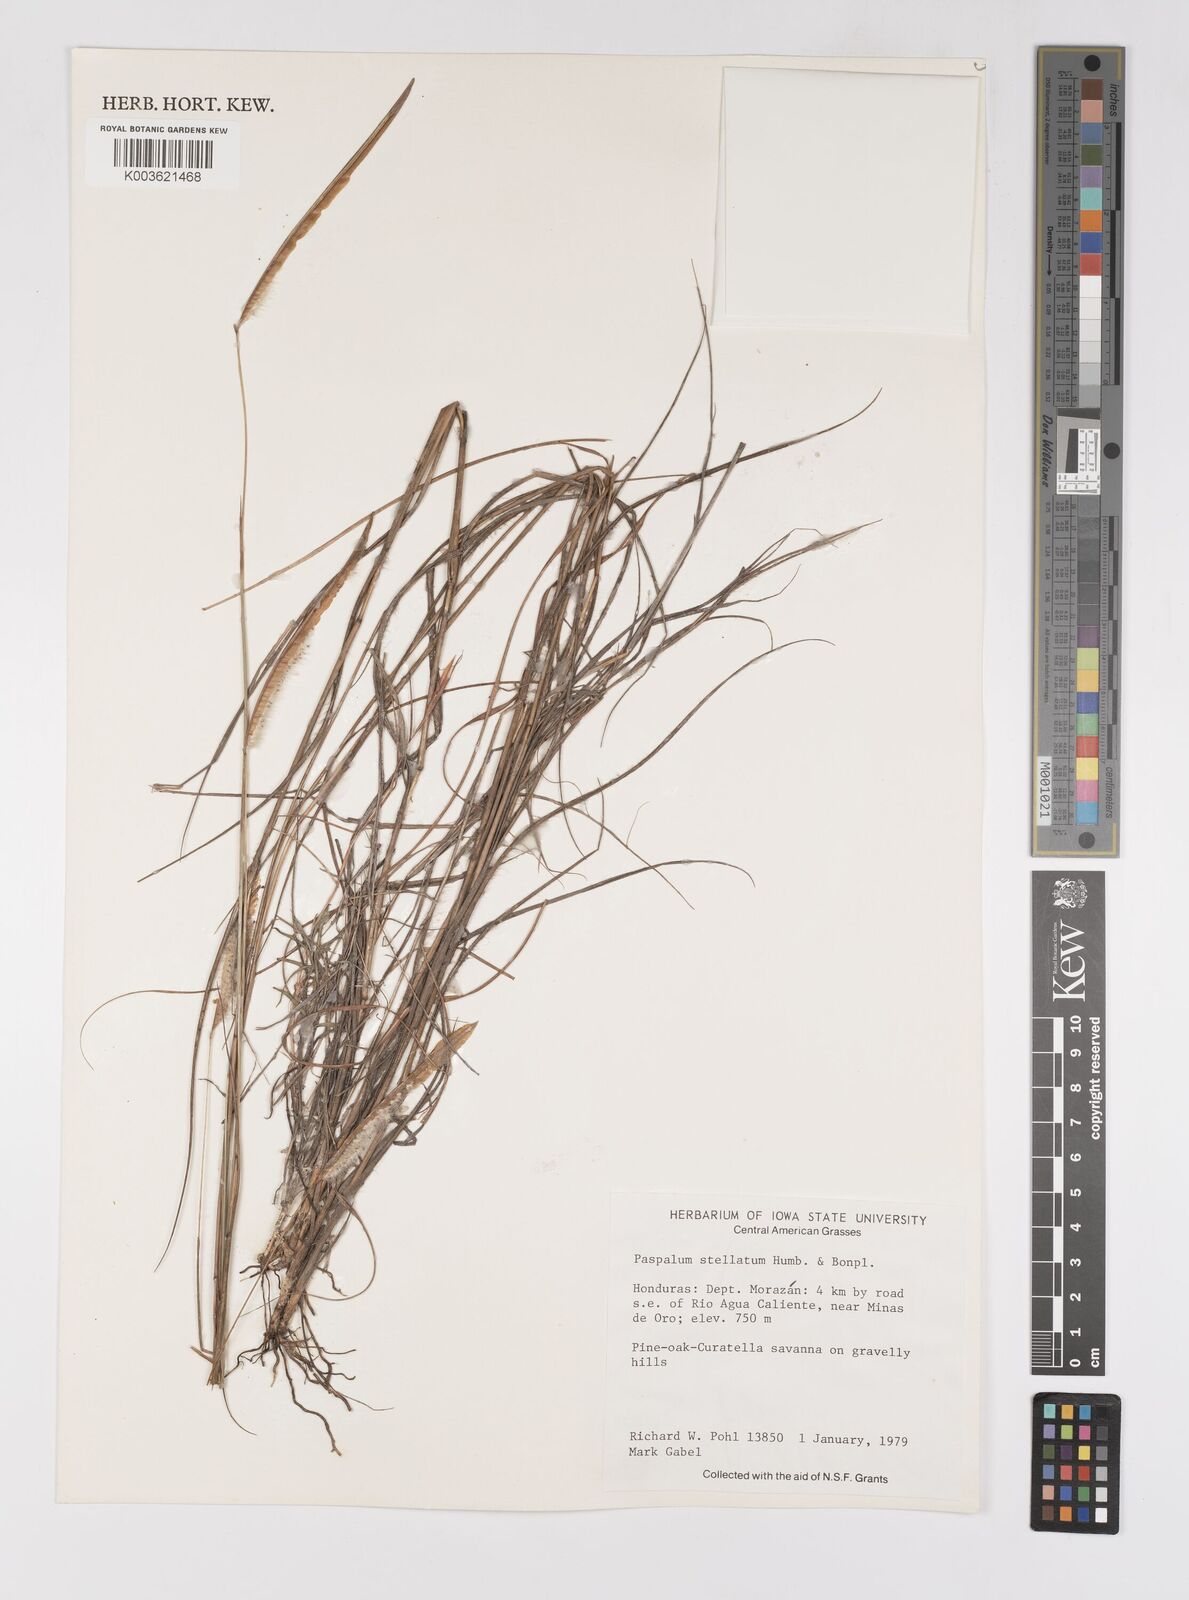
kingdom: Plantae
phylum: Tracheophyta
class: Liliopsida
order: Poales
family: Poaceae
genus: Paspalum
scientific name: Paspalum stellatum
